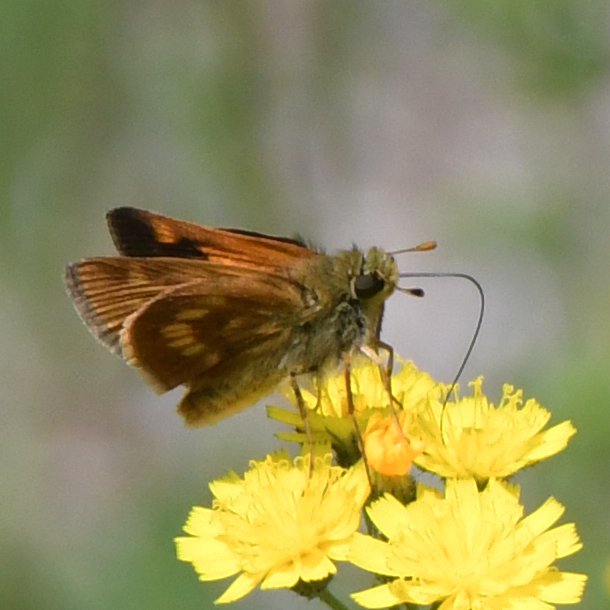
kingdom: Animalia
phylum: Arthropoda
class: Insecta
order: Lepidoptera
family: Hesperiidae
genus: Polites
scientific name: Polites
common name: Long Dash Skipper
